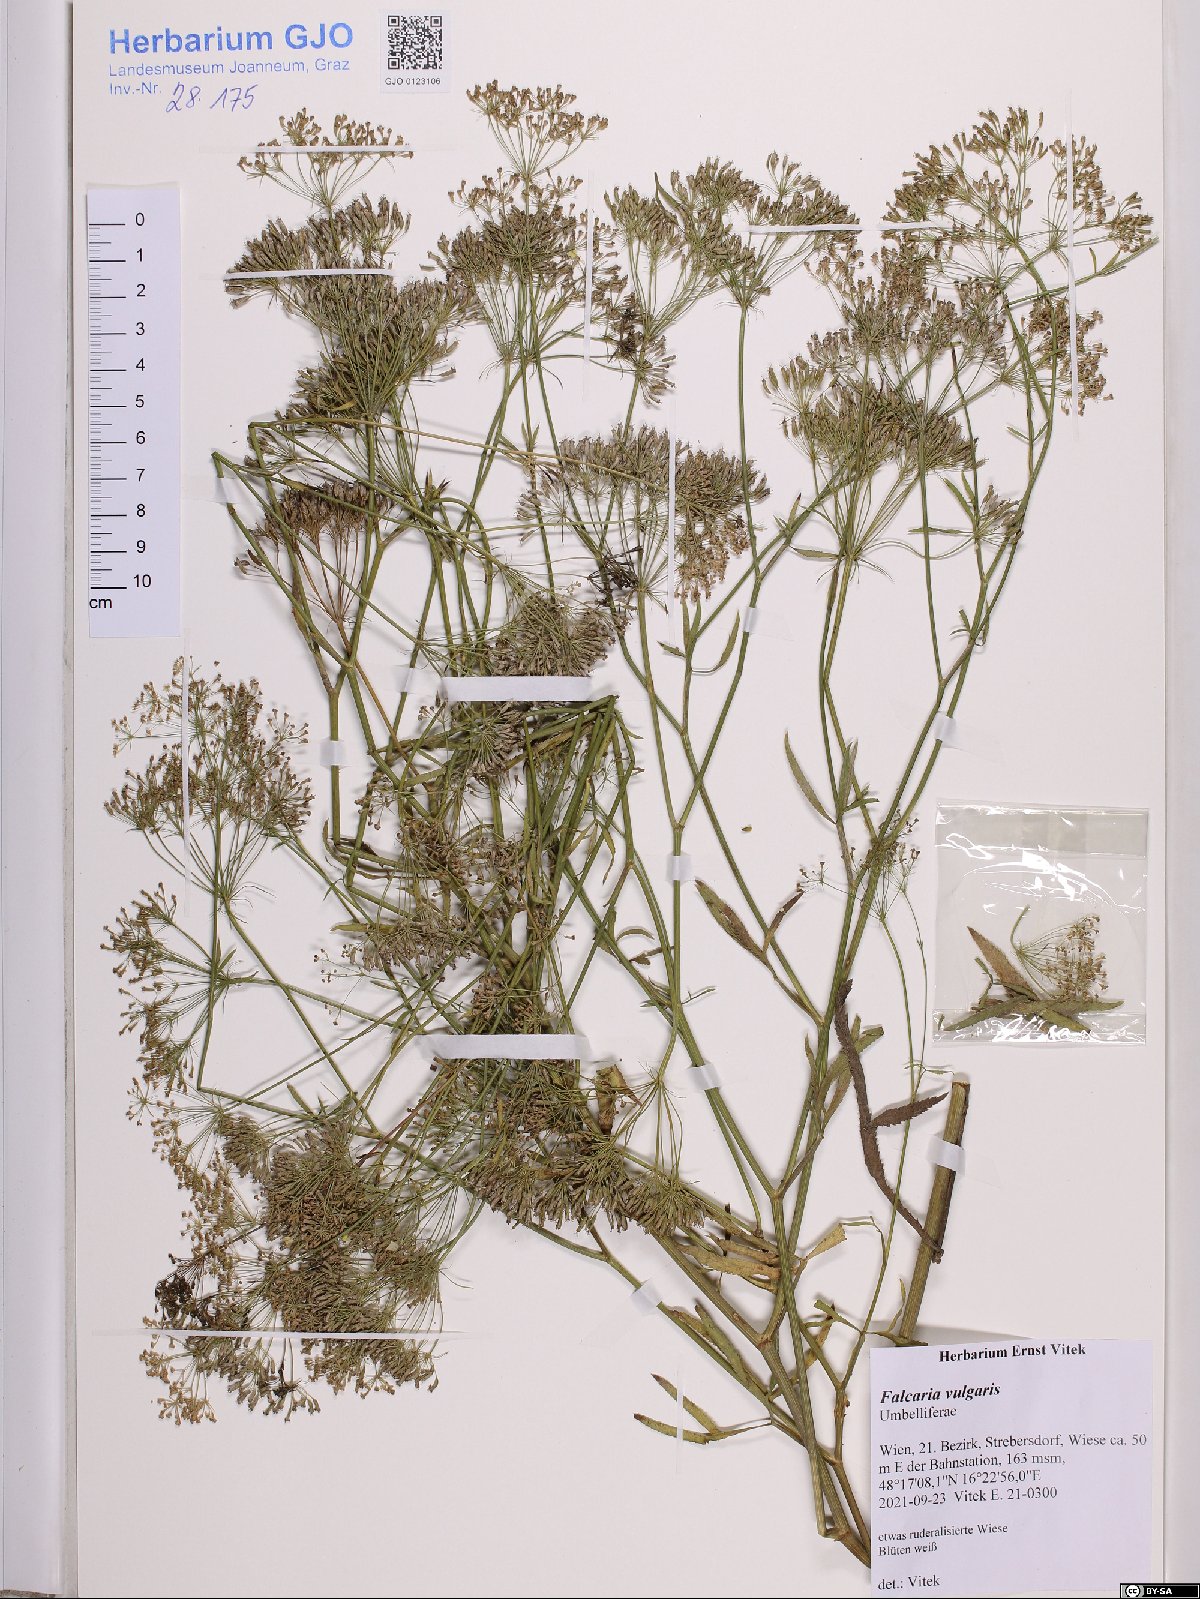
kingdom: Plantae
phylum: Tracheophyta
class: Magnoliopsida
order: Apiales
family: Apiaceae
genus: Falcaria
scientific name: Falcaria vulgaris
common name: Longleaf
